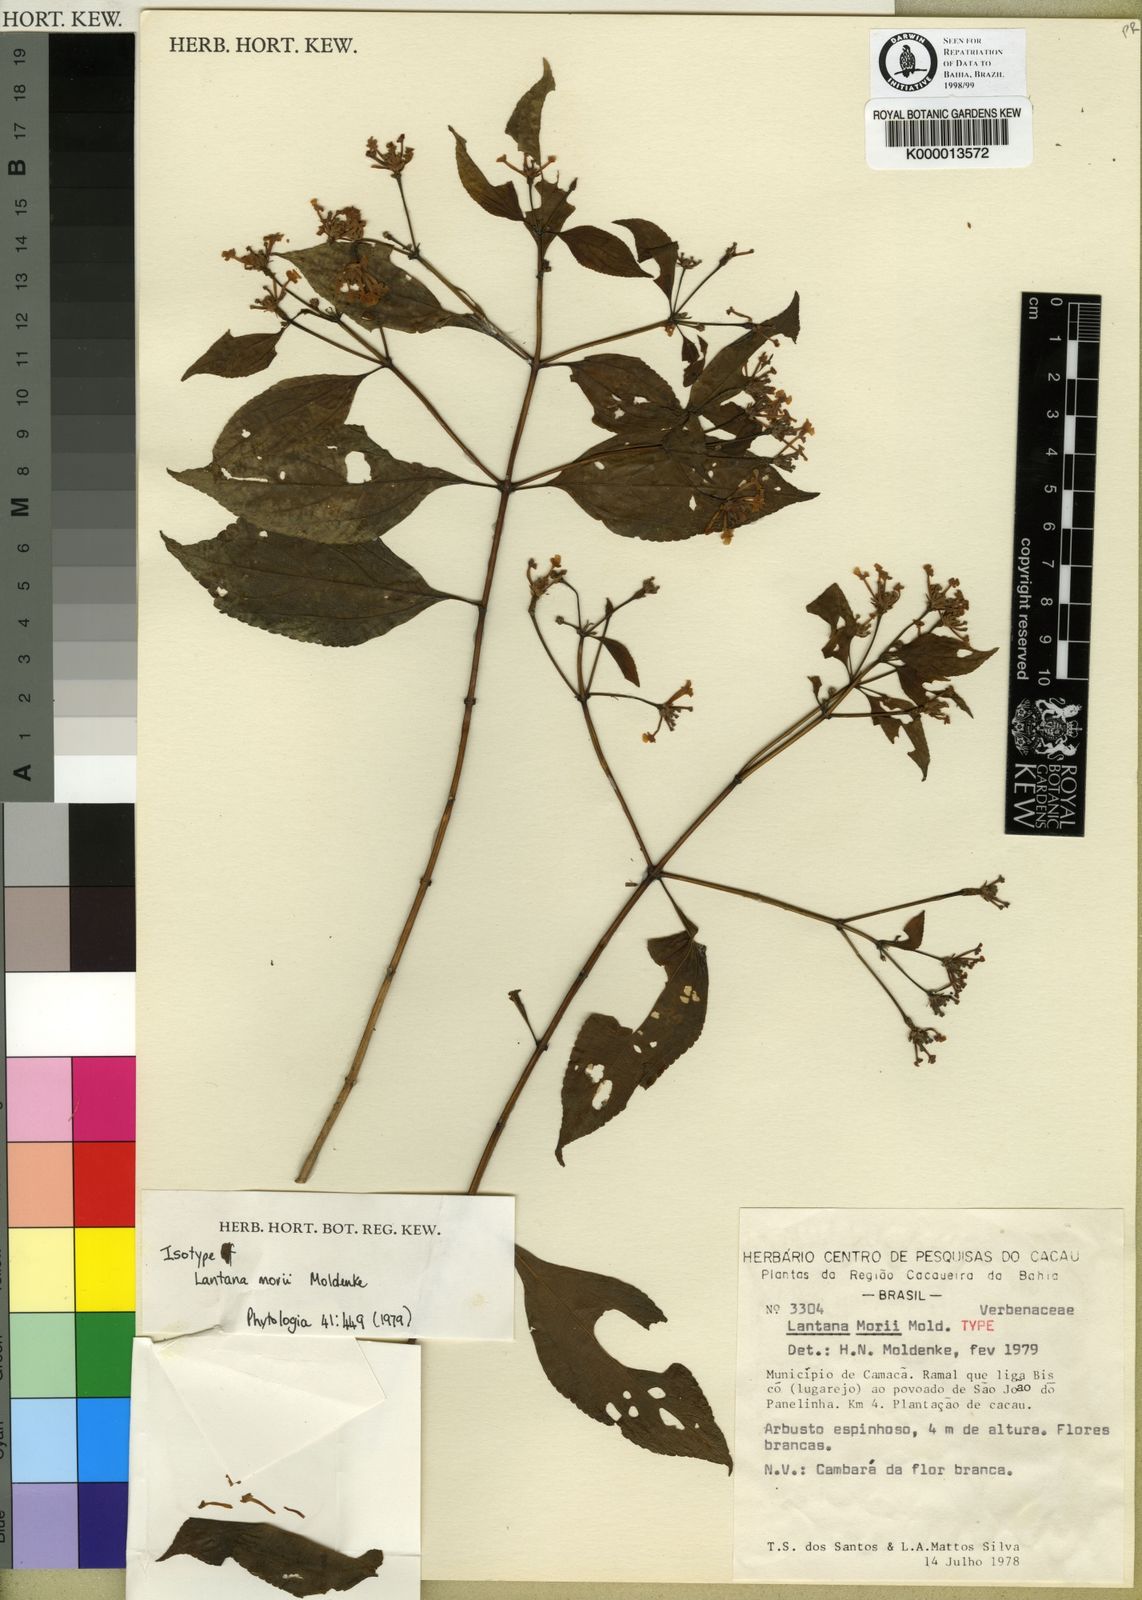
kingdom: Plantae
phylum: Tracheophyta
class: Magnoliopsida
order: Lamiales
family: Verbenaceae
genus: Lantana
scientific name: Lantana nivea
